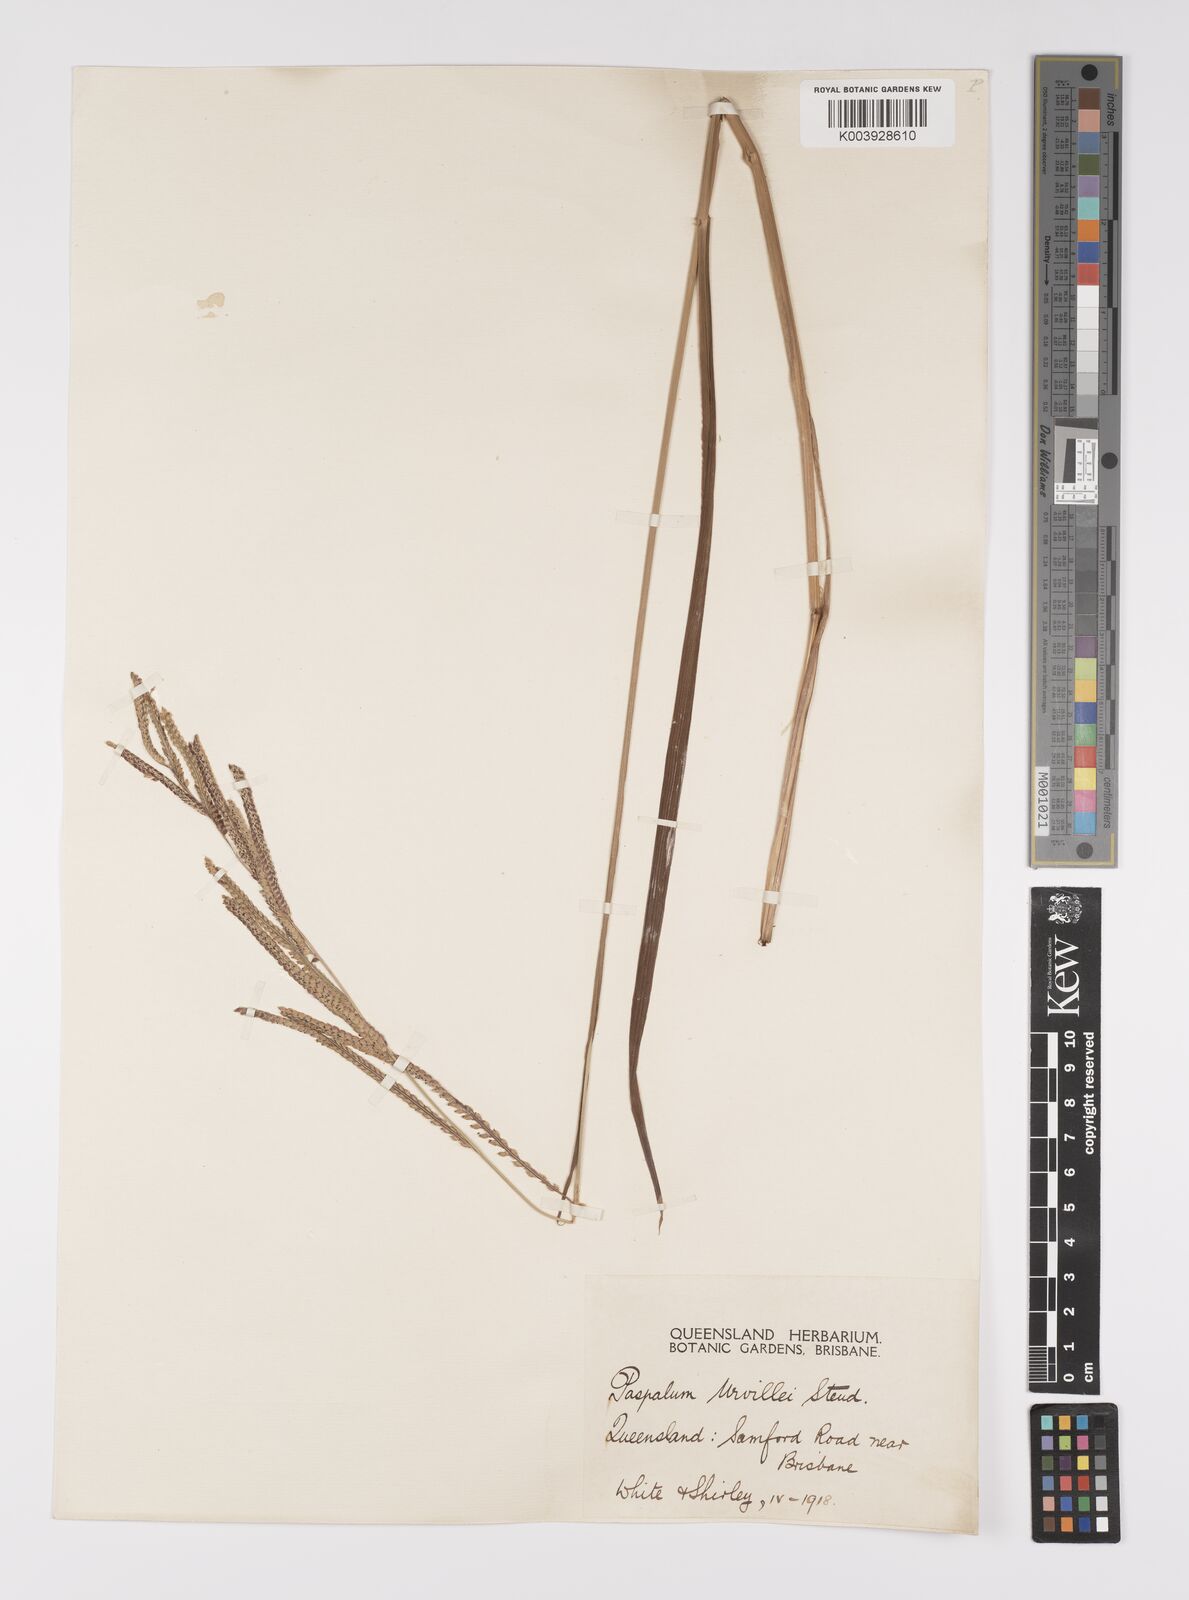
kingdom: Plantae
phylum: Tracheophyta
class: Liliopsida
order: Poales
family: Poaceae
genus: Paspalum
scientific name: Paspalum urvillei
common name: Vasey's grass
